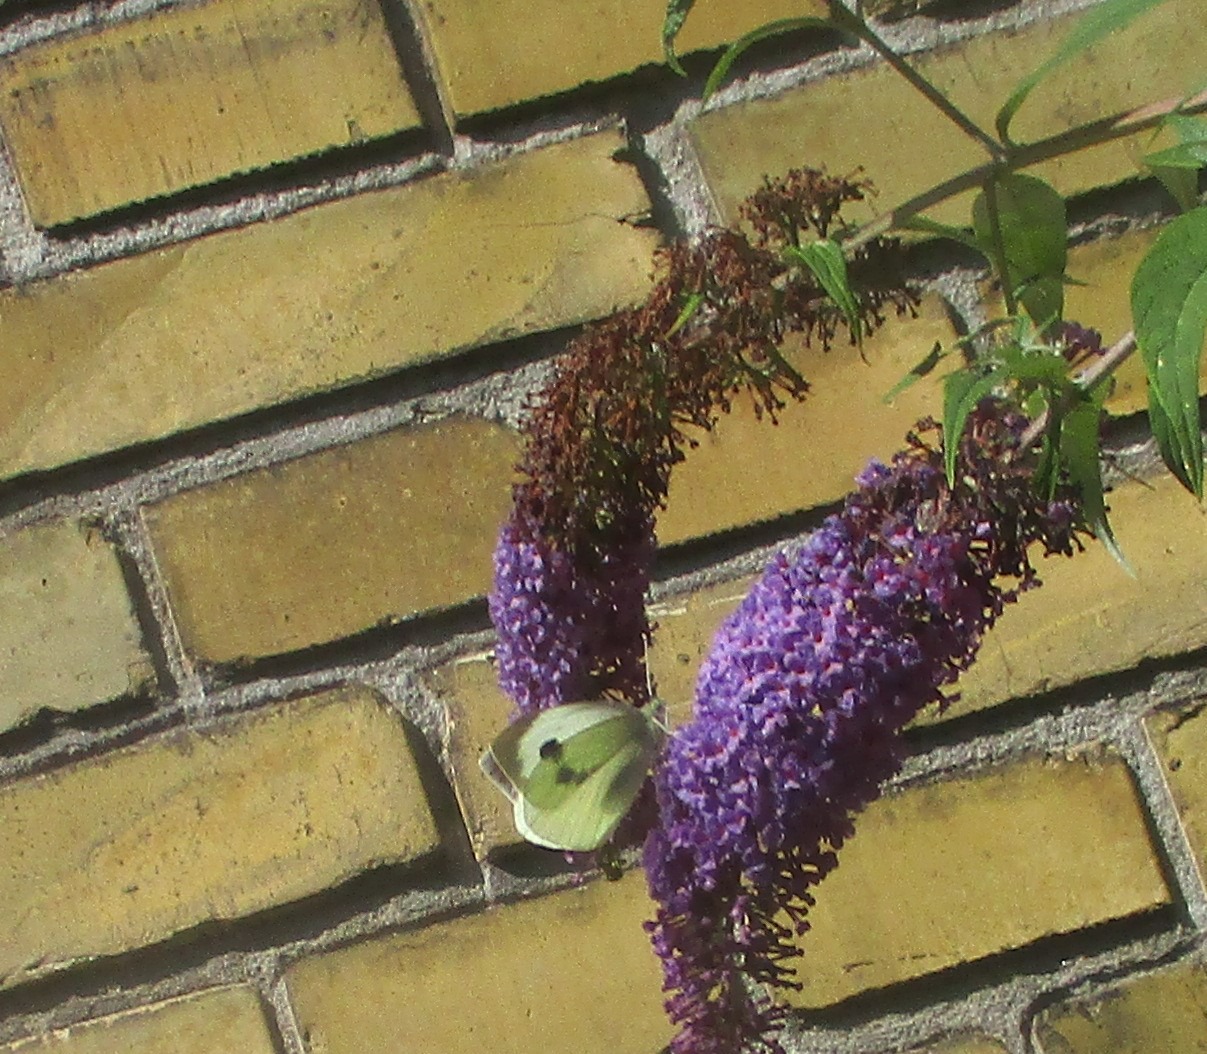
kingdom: Animalia
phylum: Arthropoda
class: Insecta
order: Lepidoptera
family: Pieridae
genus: Pieris
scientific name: Pieris brassicae
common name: Stor kålsommerfugl
